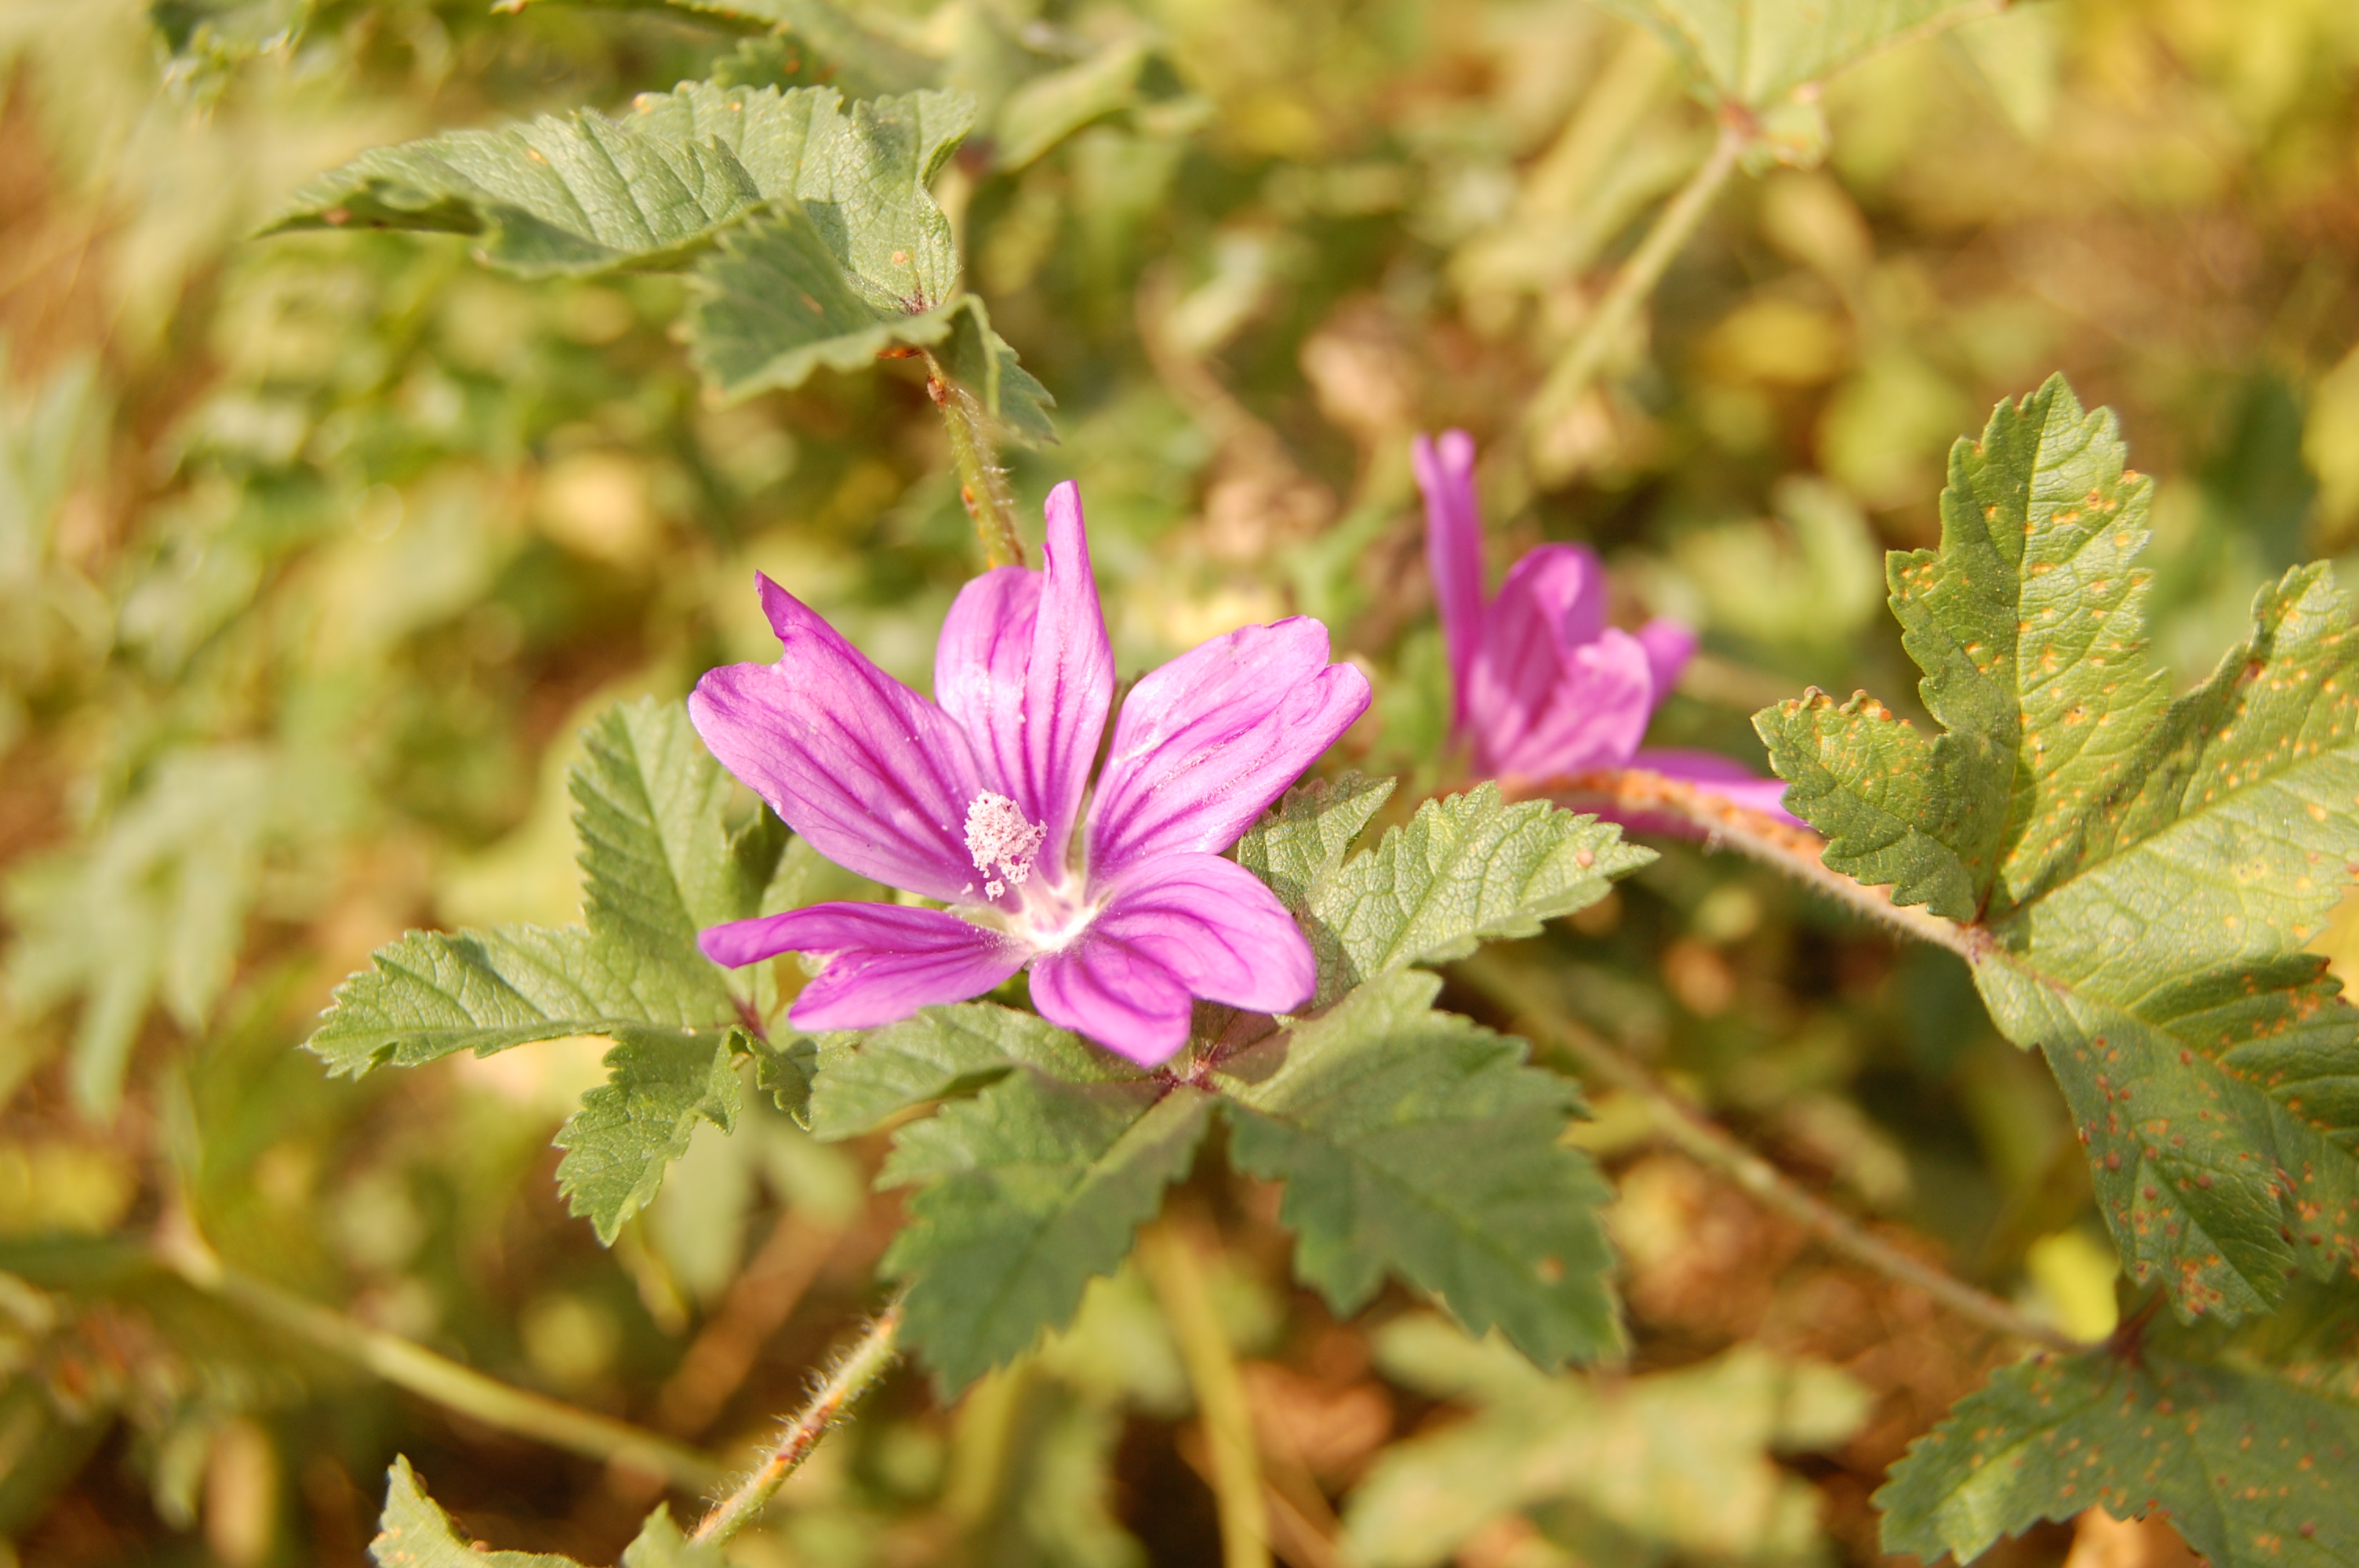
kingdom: Plantae
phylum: Tracheophyta
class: Magnoliopsida
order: Malvales
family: Malvaceae
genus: Malva
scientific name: Malva sylvestris
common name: Common mallow
